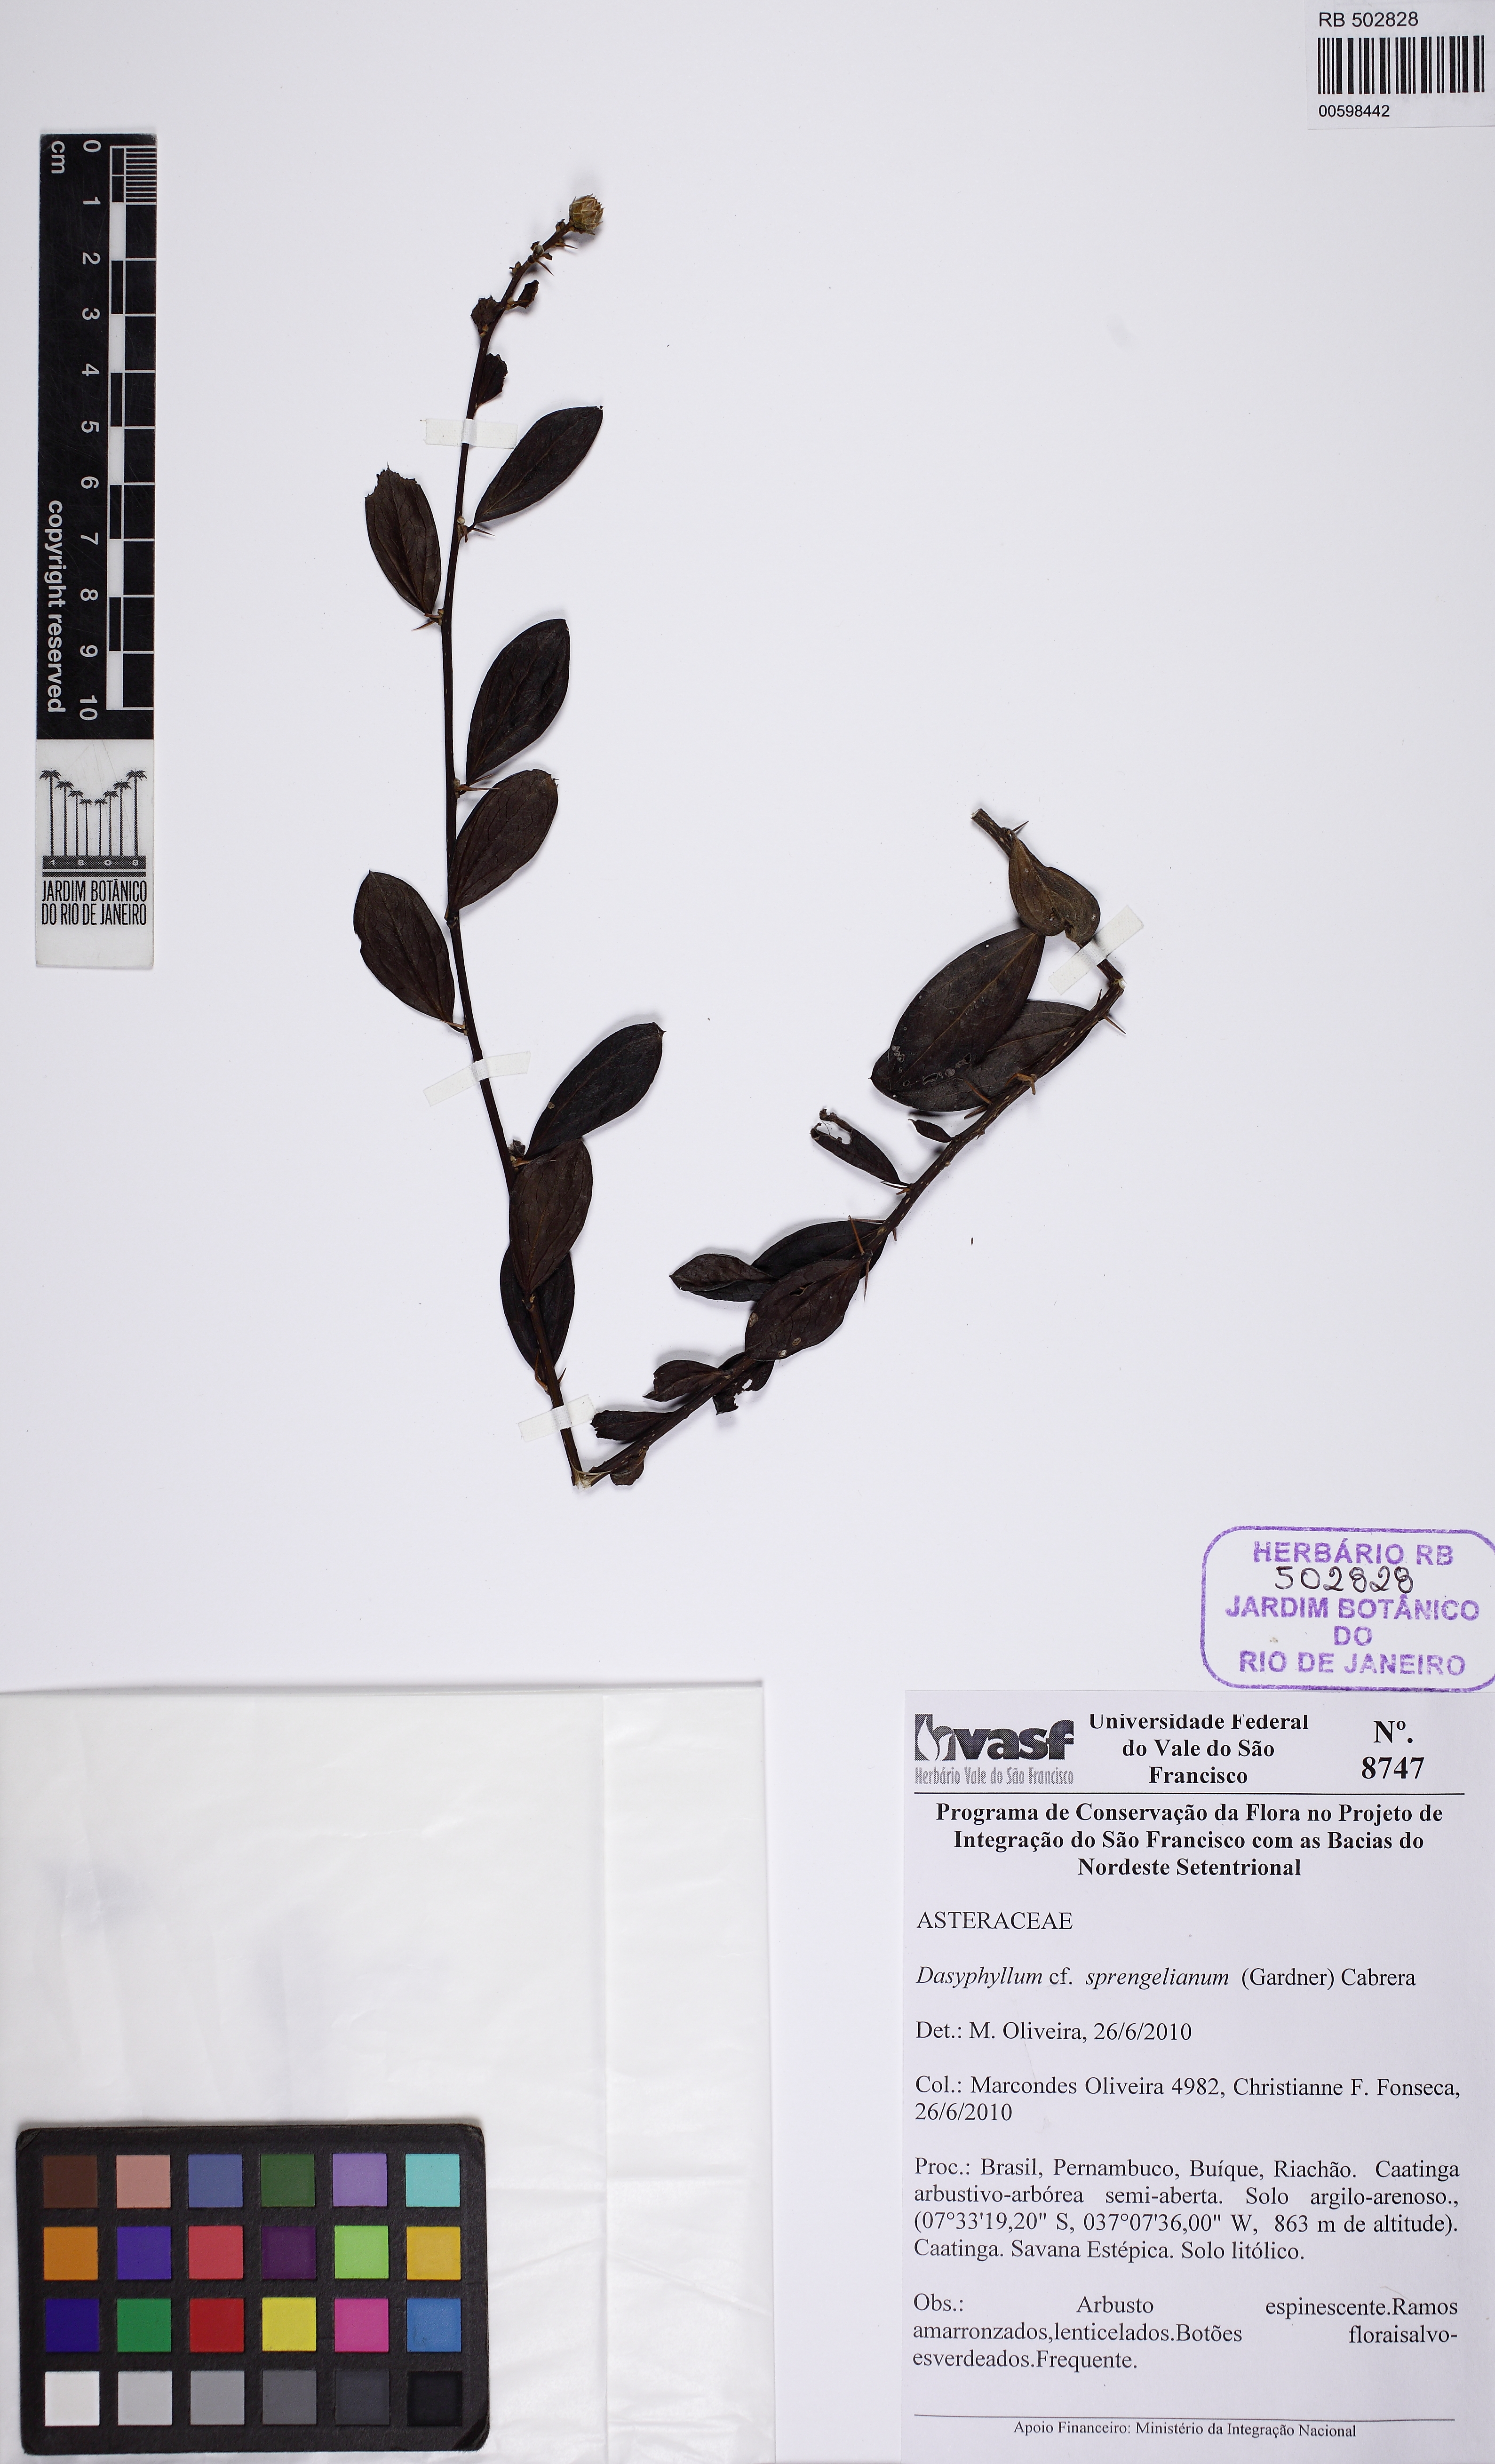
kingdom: Plantae
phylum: Tracheophyta
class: Magnoliopsida
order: Asterales
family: Asteraceae
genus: Dasyphyllum
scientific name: Dasyphyllum sprengelianum
